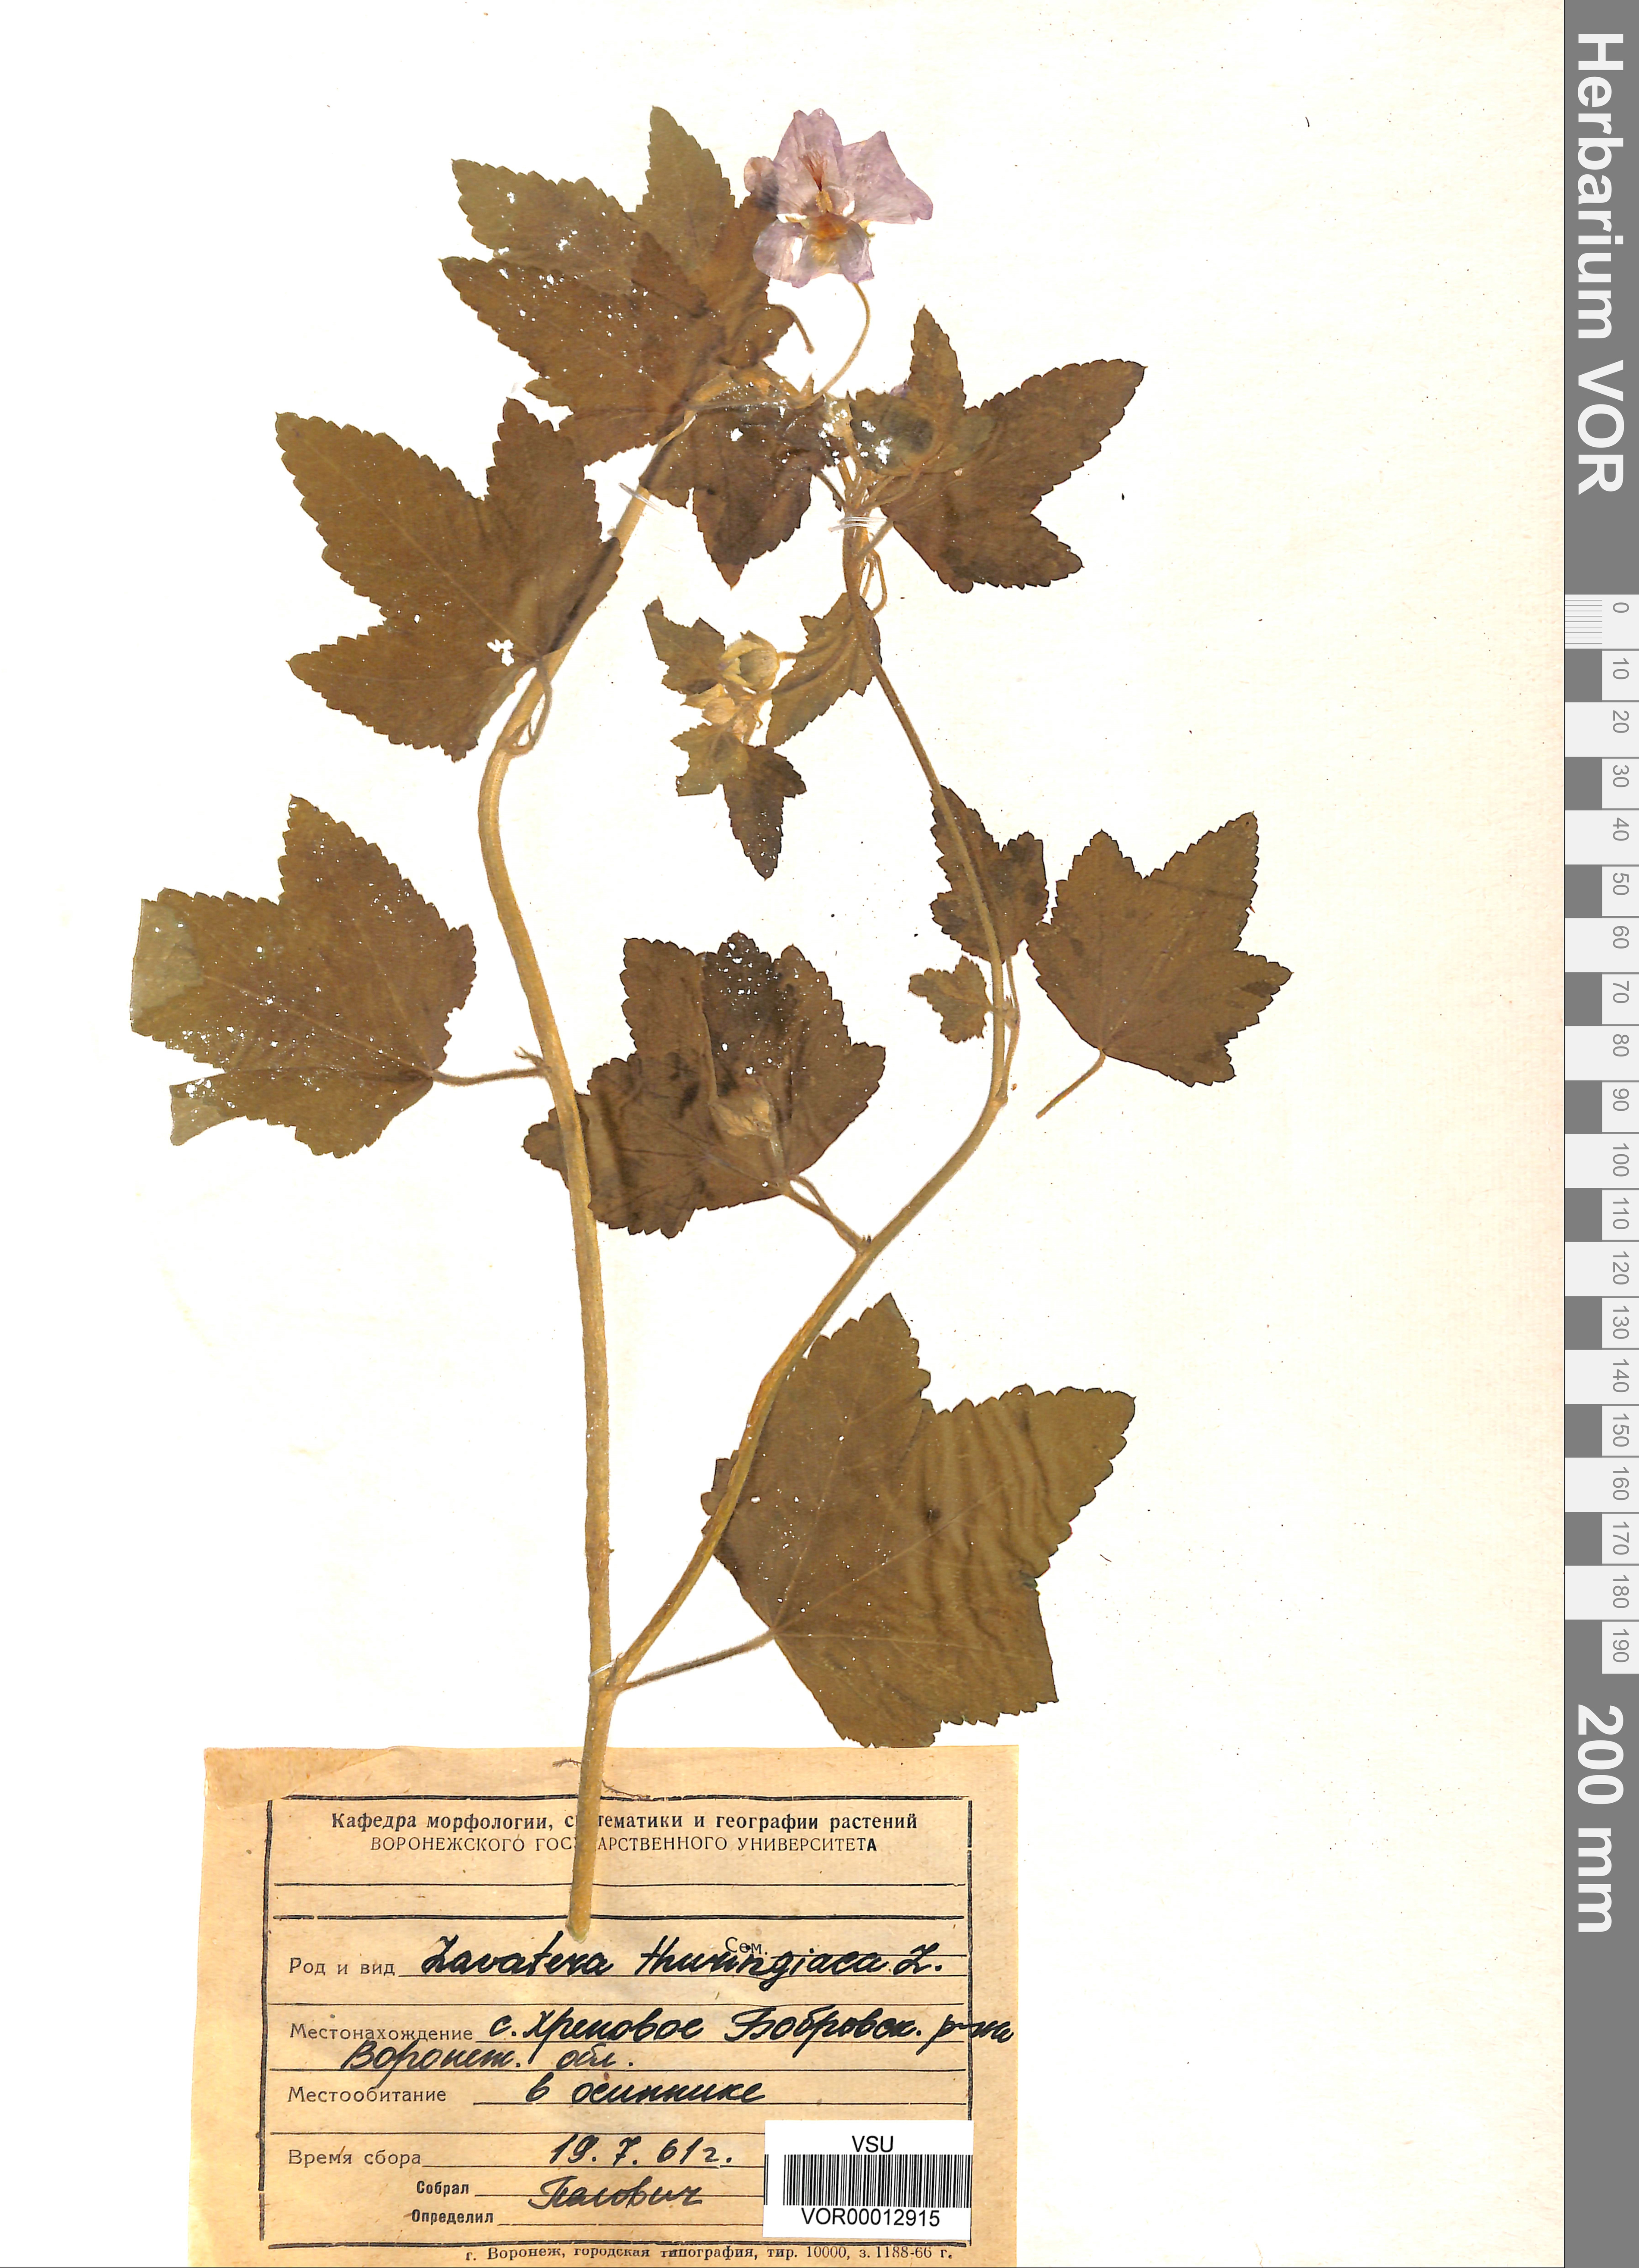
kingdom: Plantae
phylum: Tracheophyta
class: Magnoliopsida
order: Malvales
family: Malvaceae
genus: Malva
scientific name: Malva thuringiaca
